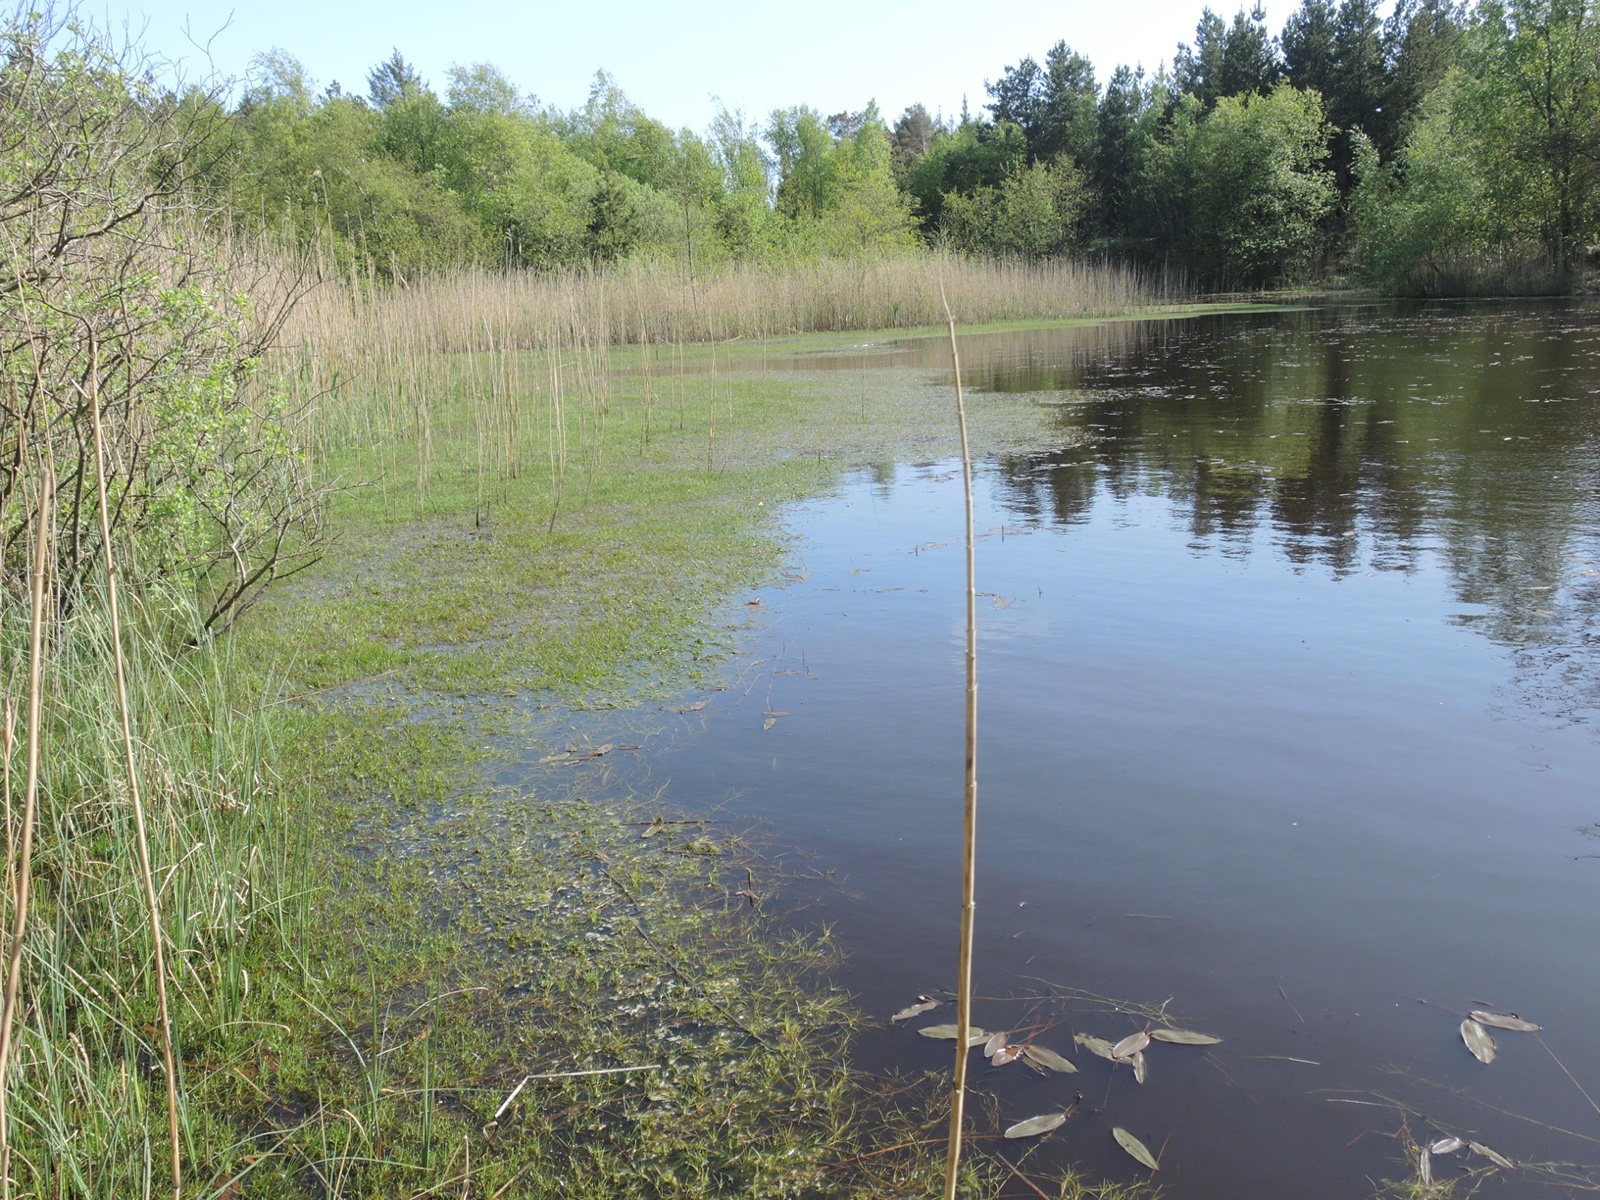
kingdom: Fungi
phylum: Ascomycota
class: Leotiomycetes
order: Helotiales
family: Cenangiaceae
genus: Mitrula
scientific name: Mitrula paludosa
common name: gul nøkketunge
